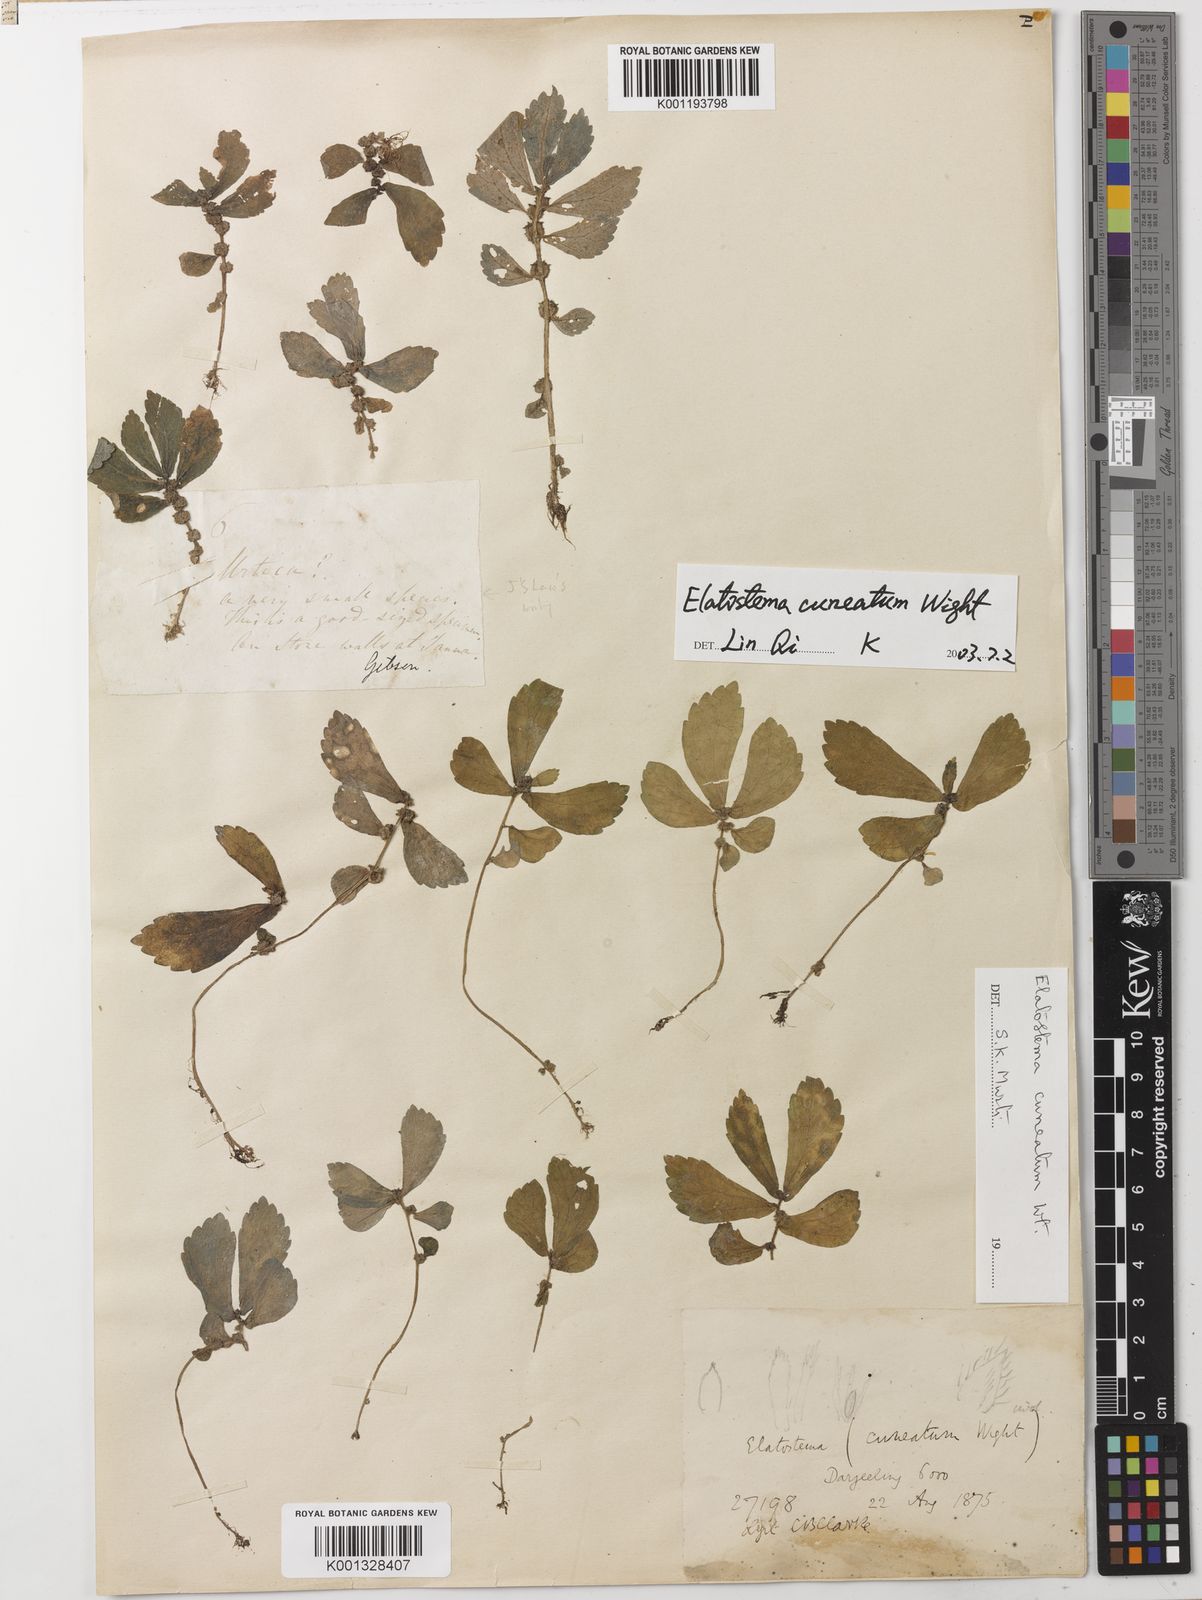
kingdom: Plantae
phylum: Tracheophyta
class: Magnoliopsida
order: Rosales
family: Urticaceae
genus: Elatostema
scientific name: Elatostema cuneatum
